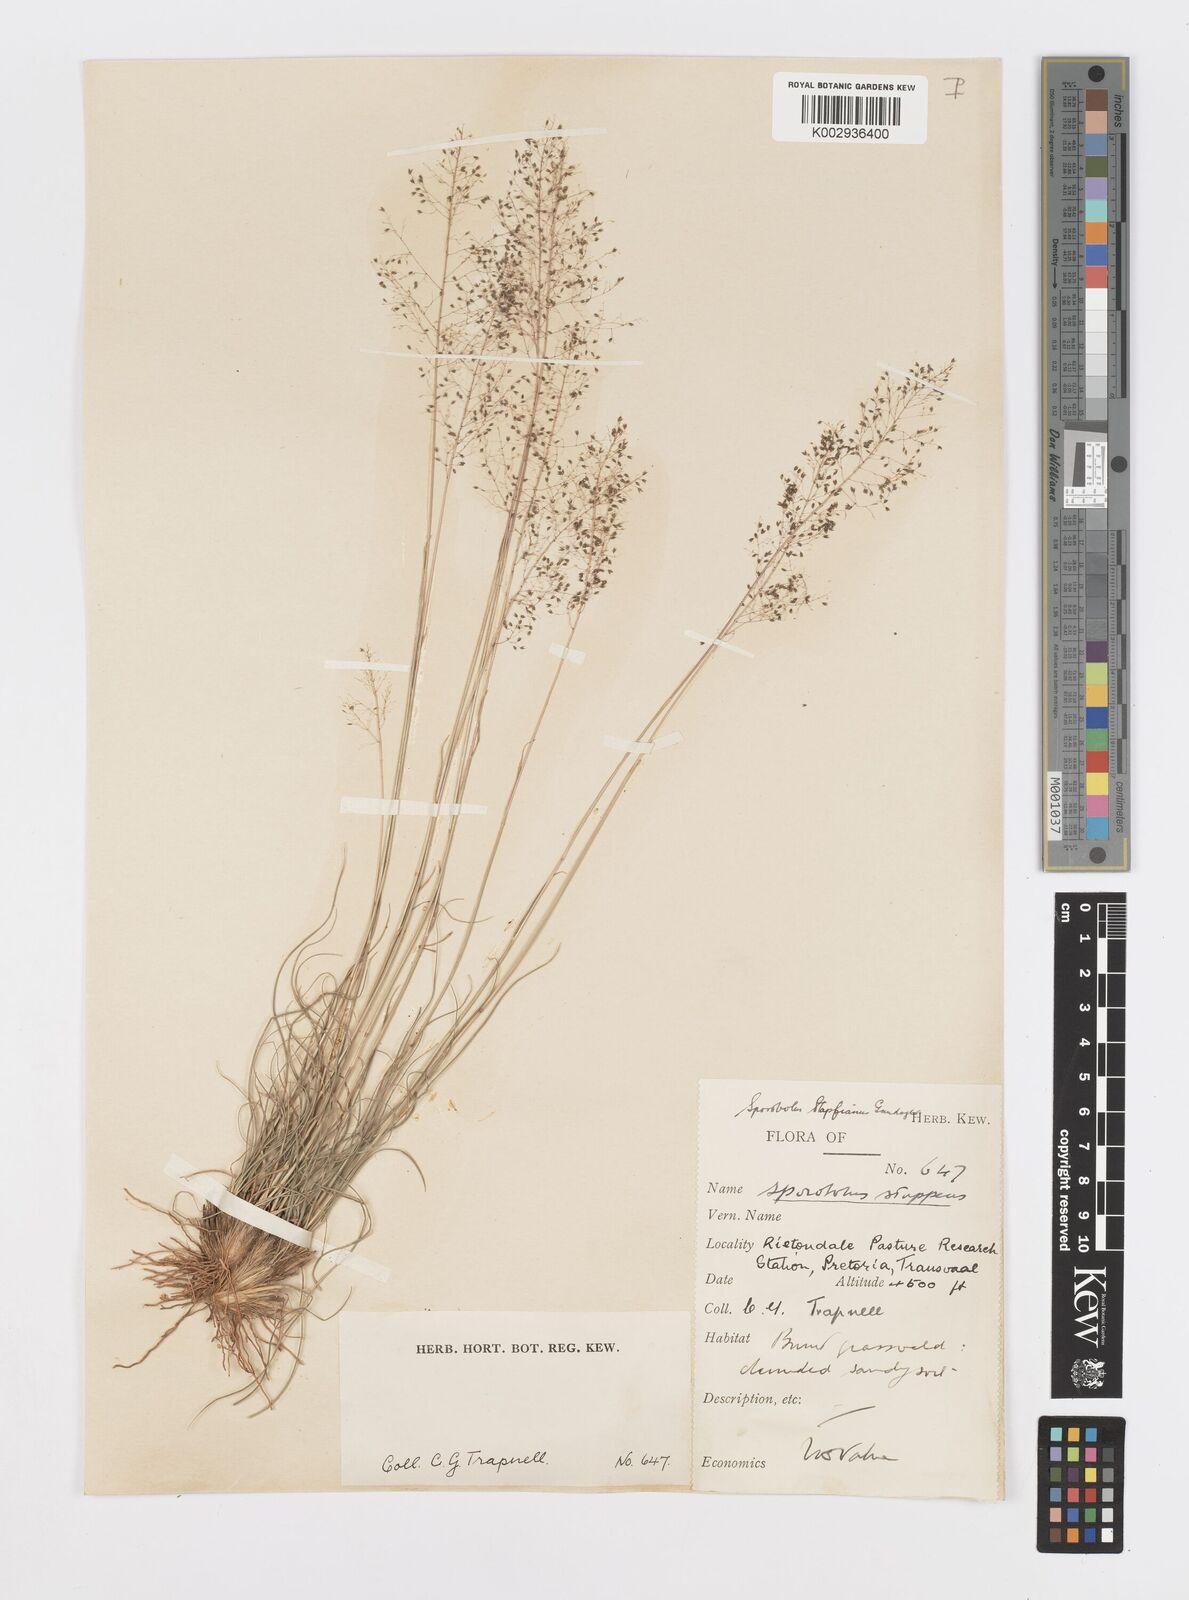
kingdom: Plantae
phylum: Tracheophyta
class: Liliopsida
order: Poales
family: Poaceae
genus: Sporobolus
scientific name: Sporobolus stapfianus
